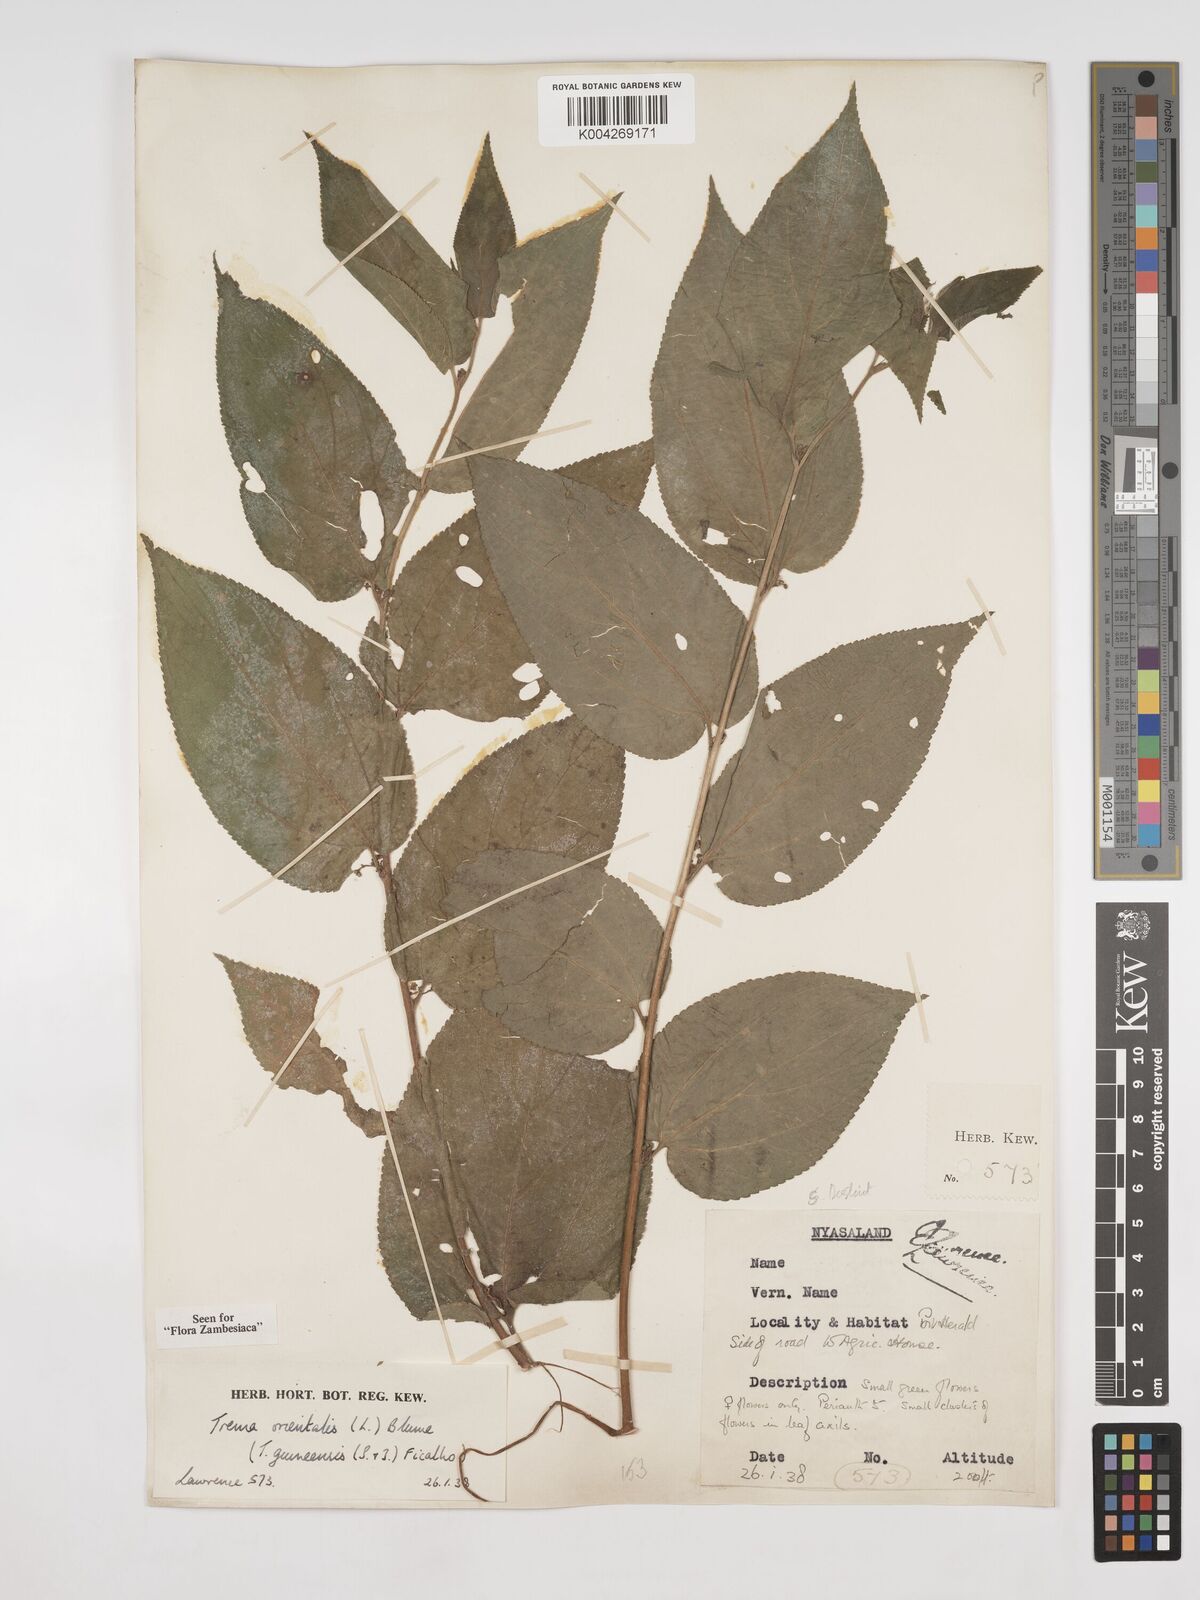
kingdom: Plantae
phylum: Tracheophyta
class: Magnoliopsida
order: Rosales
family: Cannabaceae
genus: Trema
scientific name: Trema orientale
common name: Indian charcoal tree
